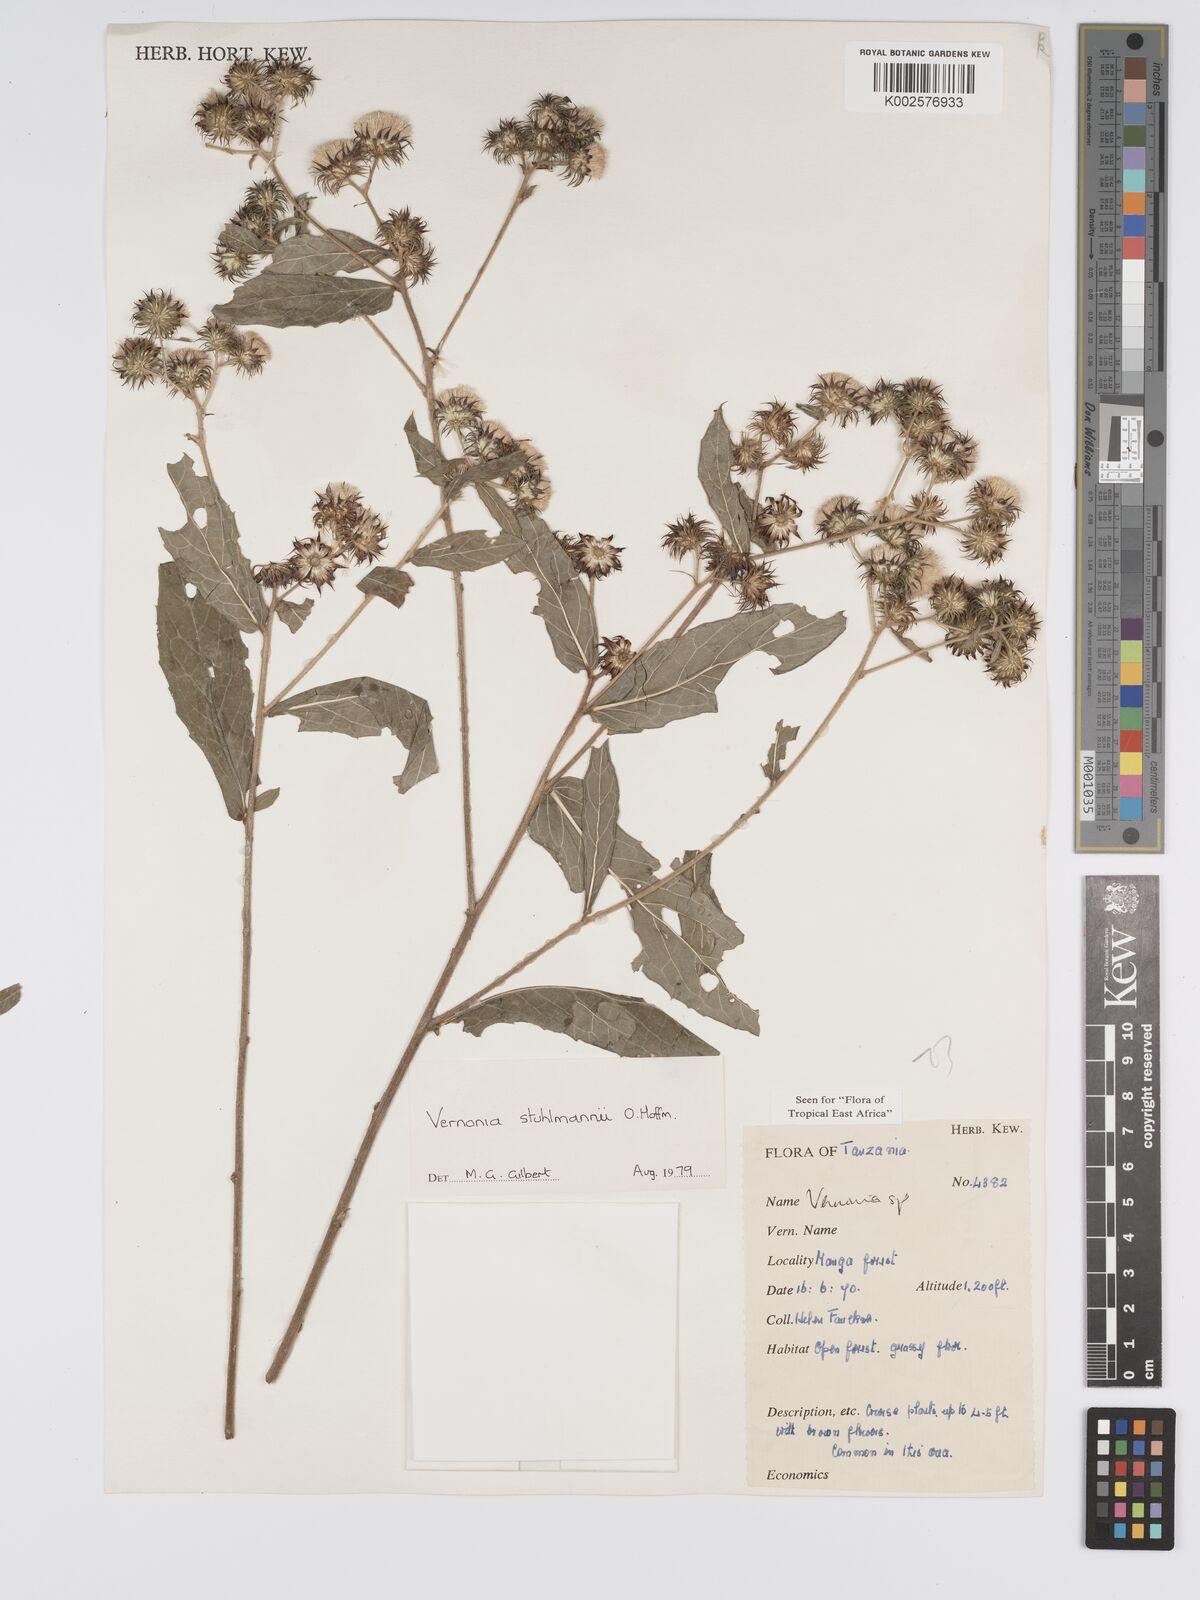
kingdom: Plantae
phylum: Tracheophyta
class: Magnoliopsida
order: Asterales
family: Asteraceae
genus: Vernonia
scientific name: Vernonia stuhlmannii
